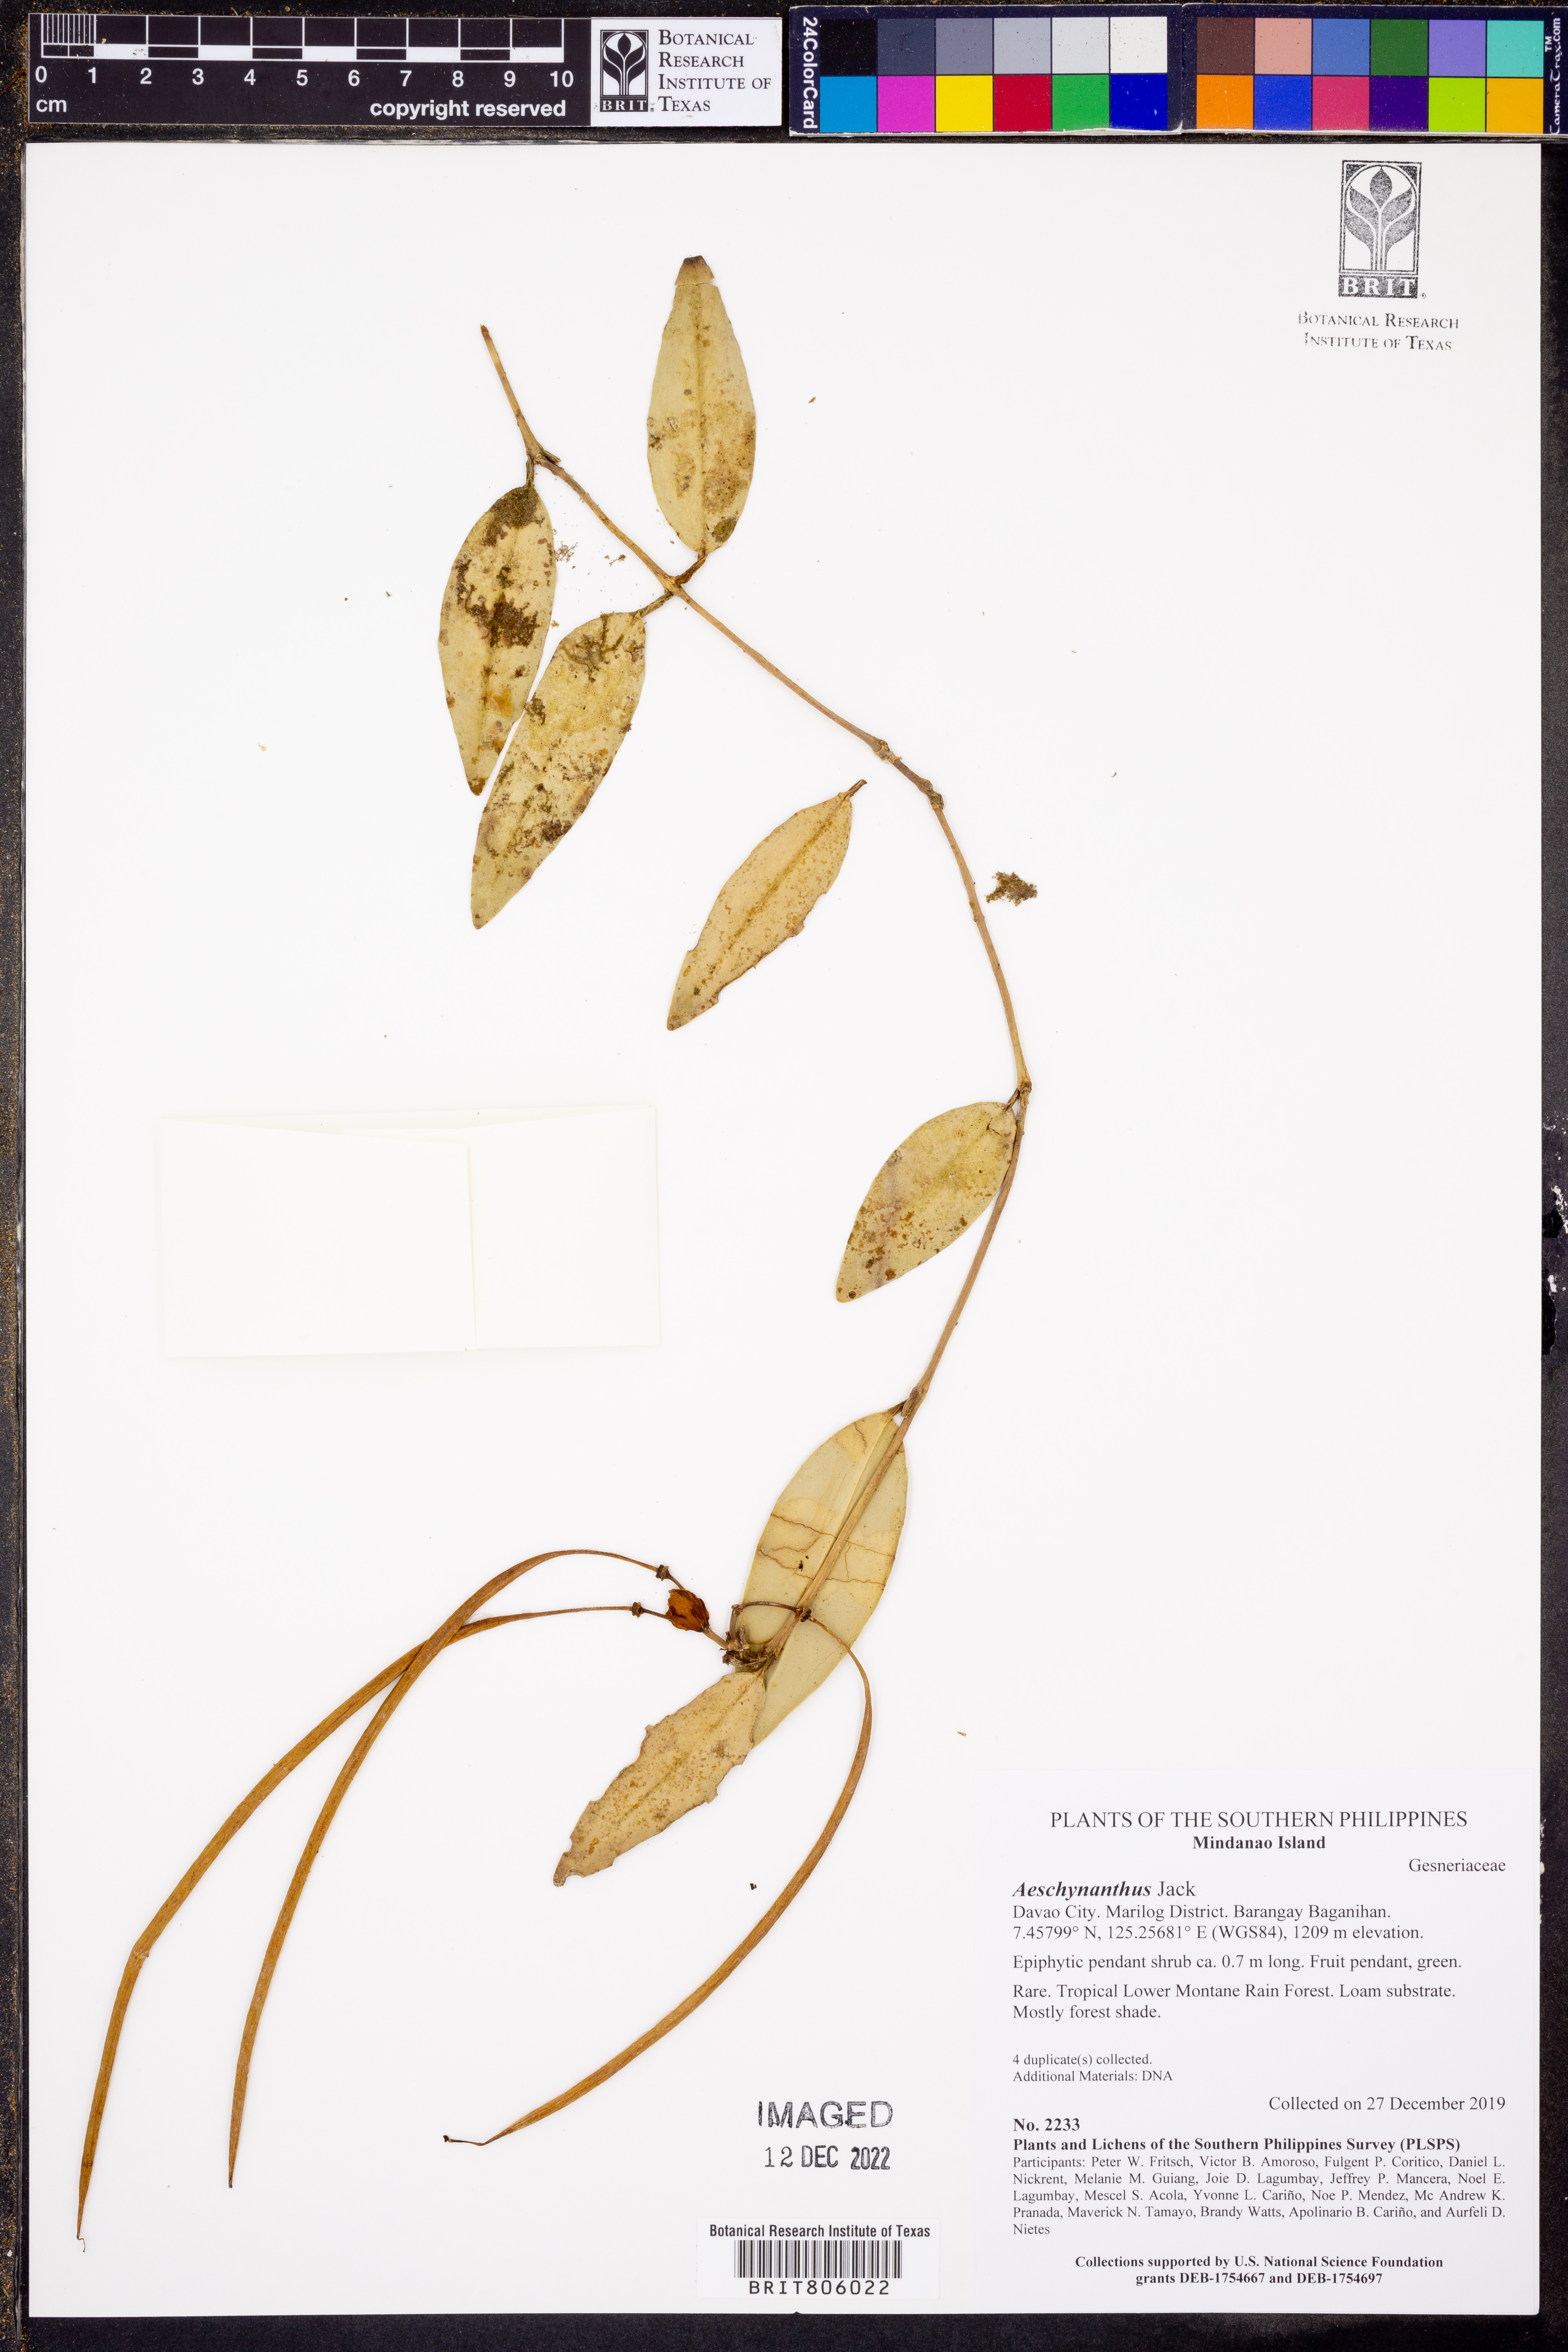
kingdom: Plantae
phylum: Tracheophyta
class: Magnoliopsida
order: Lamiales
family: Gesneriaceae
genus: Aeschynanthus
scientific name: Aeschynanthus
